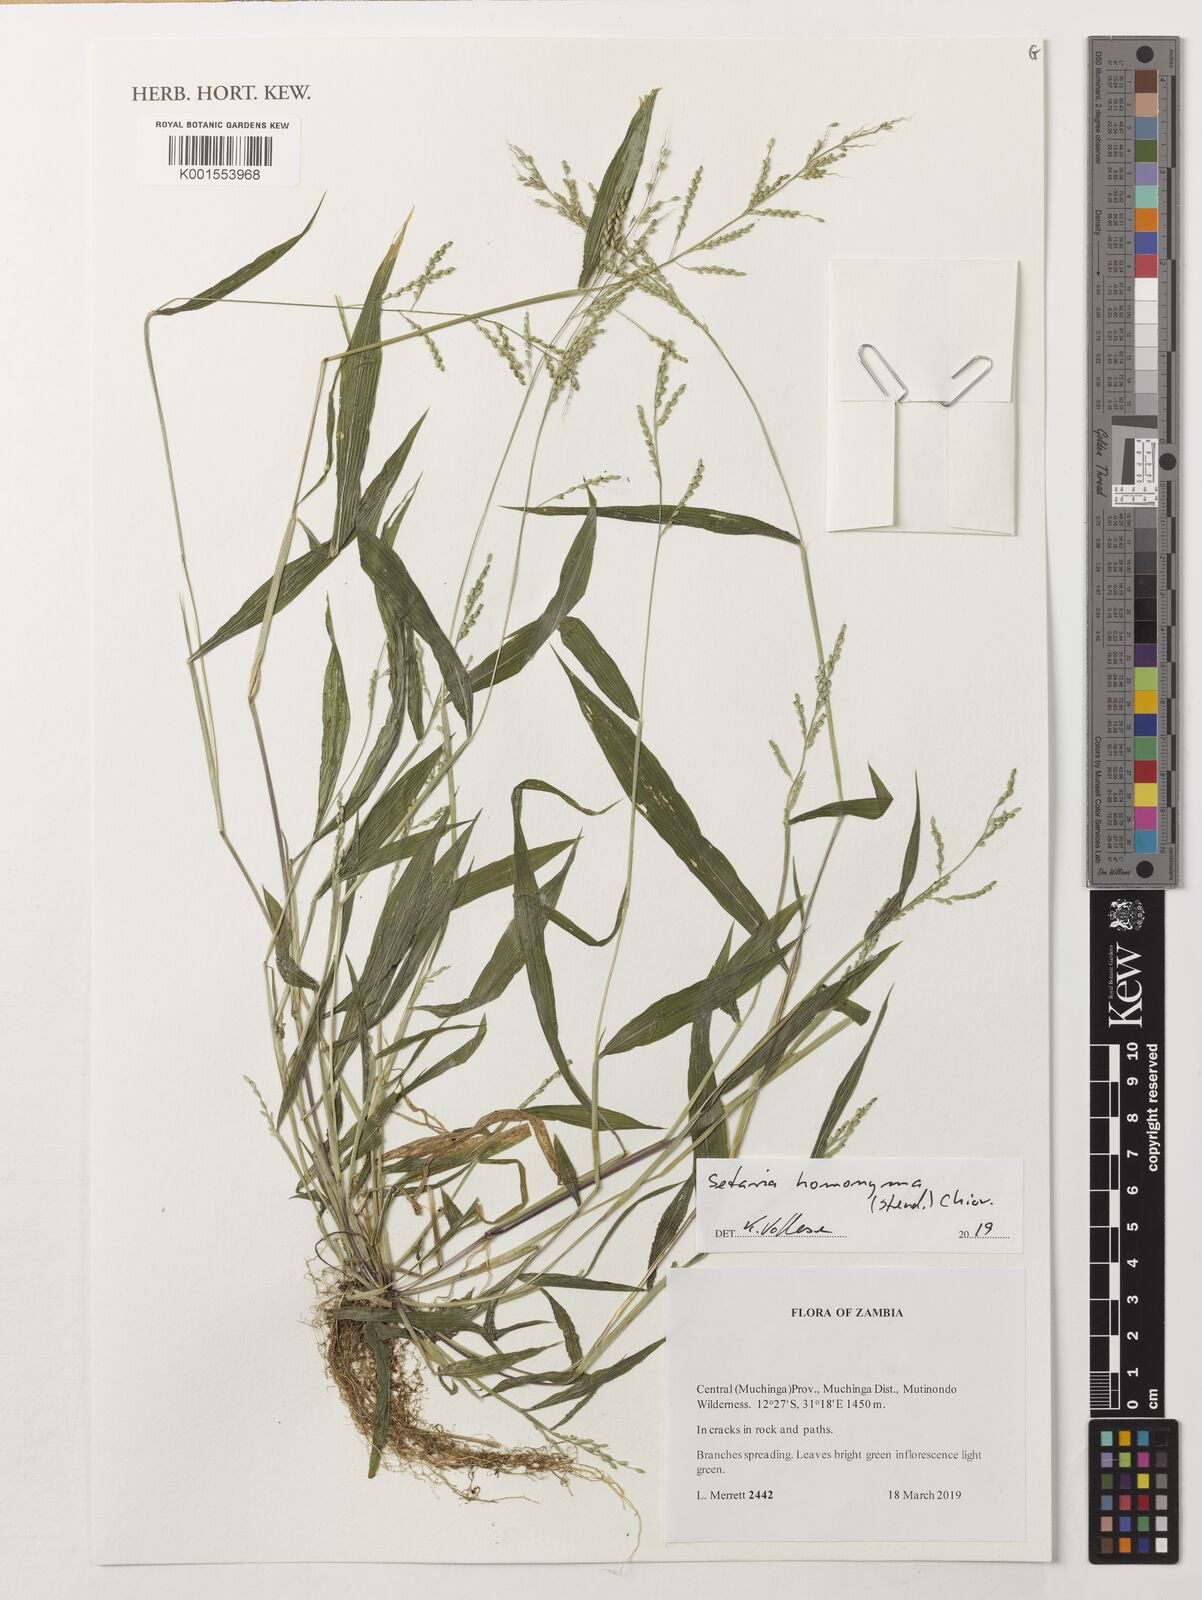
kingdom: Plantae
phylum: Tracheophyta
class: Liliopsida
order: Poales
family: Poaceae
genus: Setaria
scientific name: Setaria homonyma
